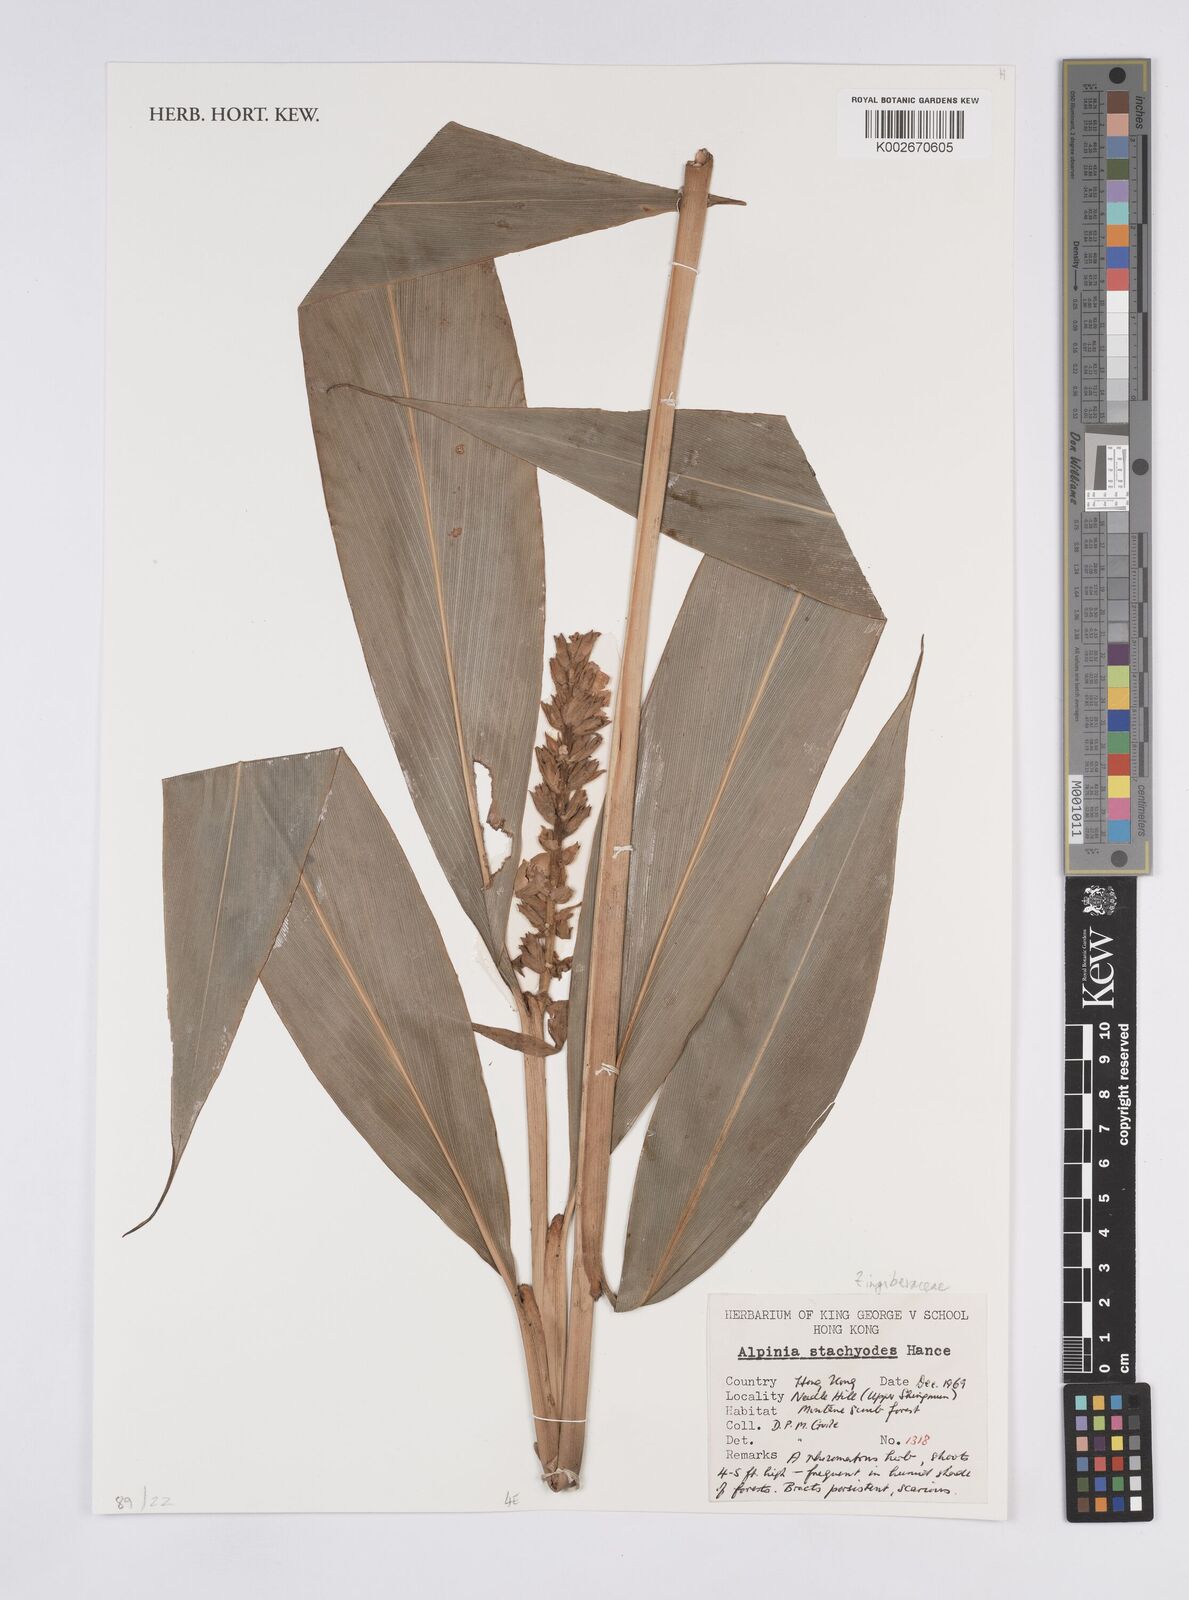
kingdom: Plantae
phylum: Tracheophyta
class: Liliopsida
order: Zingiberales
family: Zingiberaceae
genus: Alpinia
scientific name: Alpinia stachyodes
